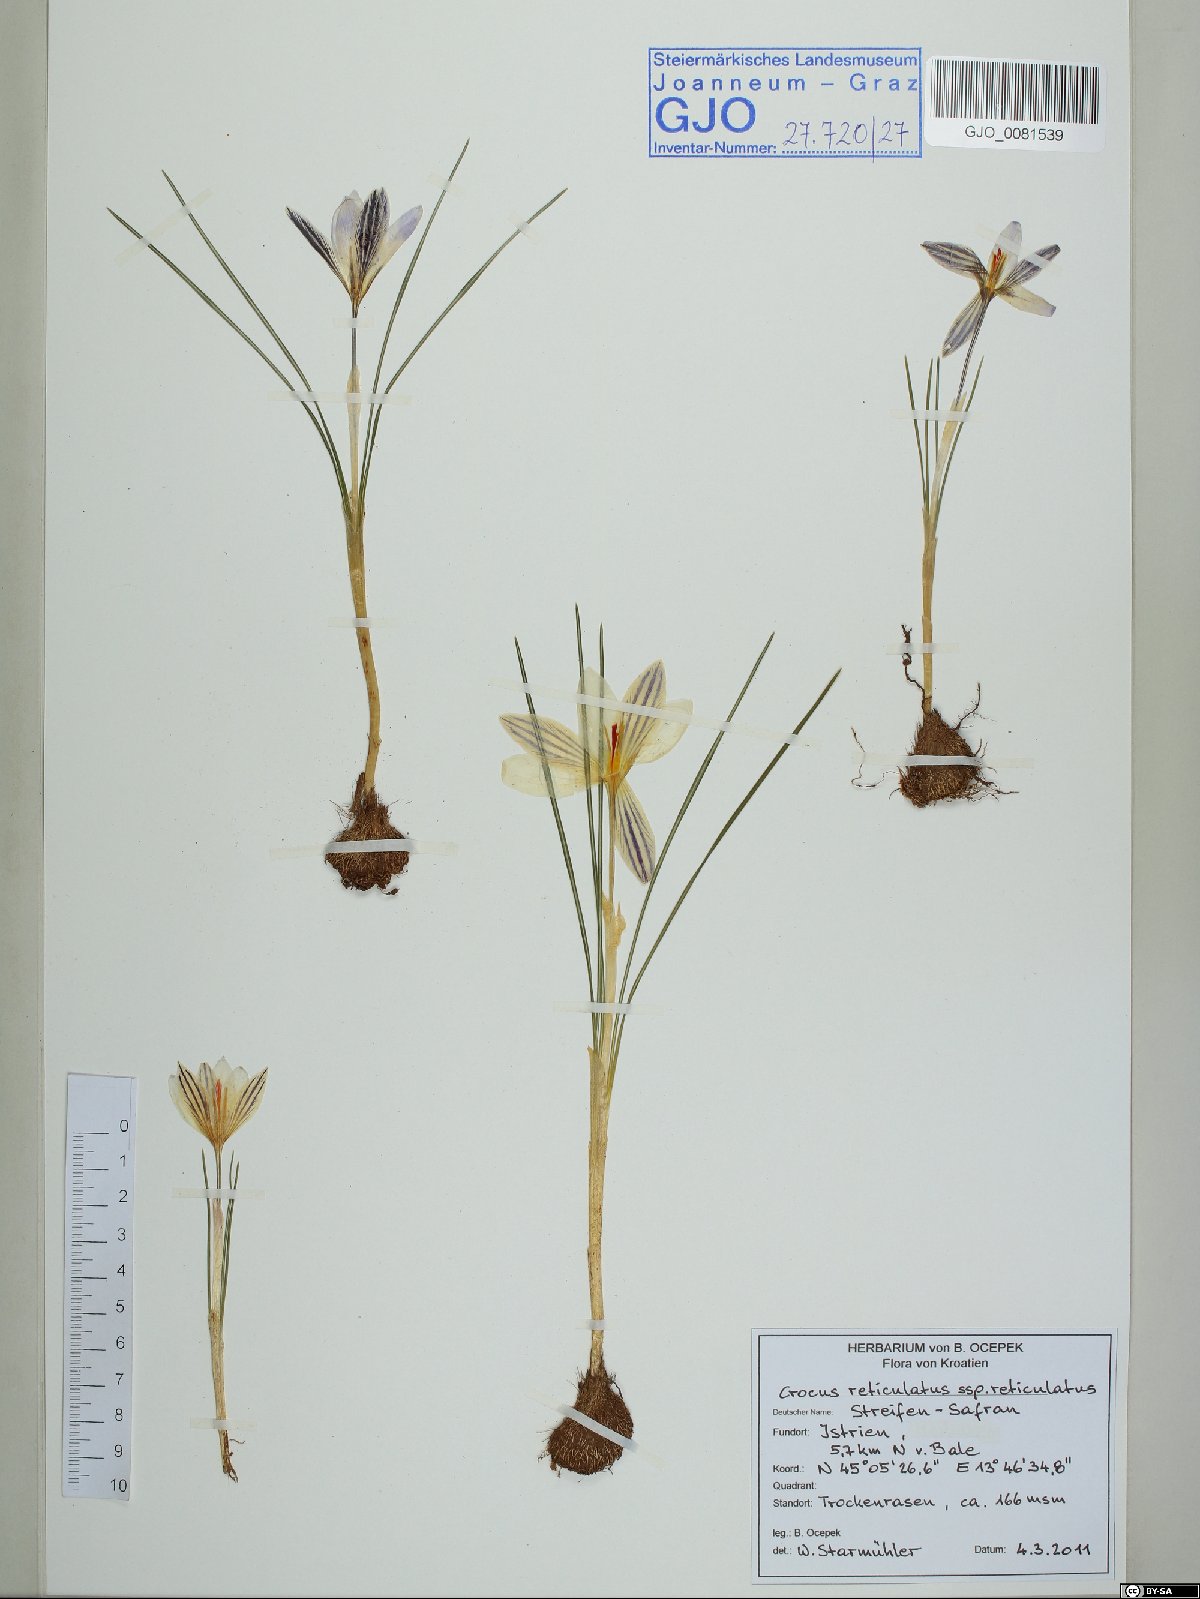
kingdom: Plantae
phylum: Tracheophyta
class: Liliopsida
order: Asparagales
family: Iridaceae
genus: Crocus
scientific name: Crocus reticulatus
